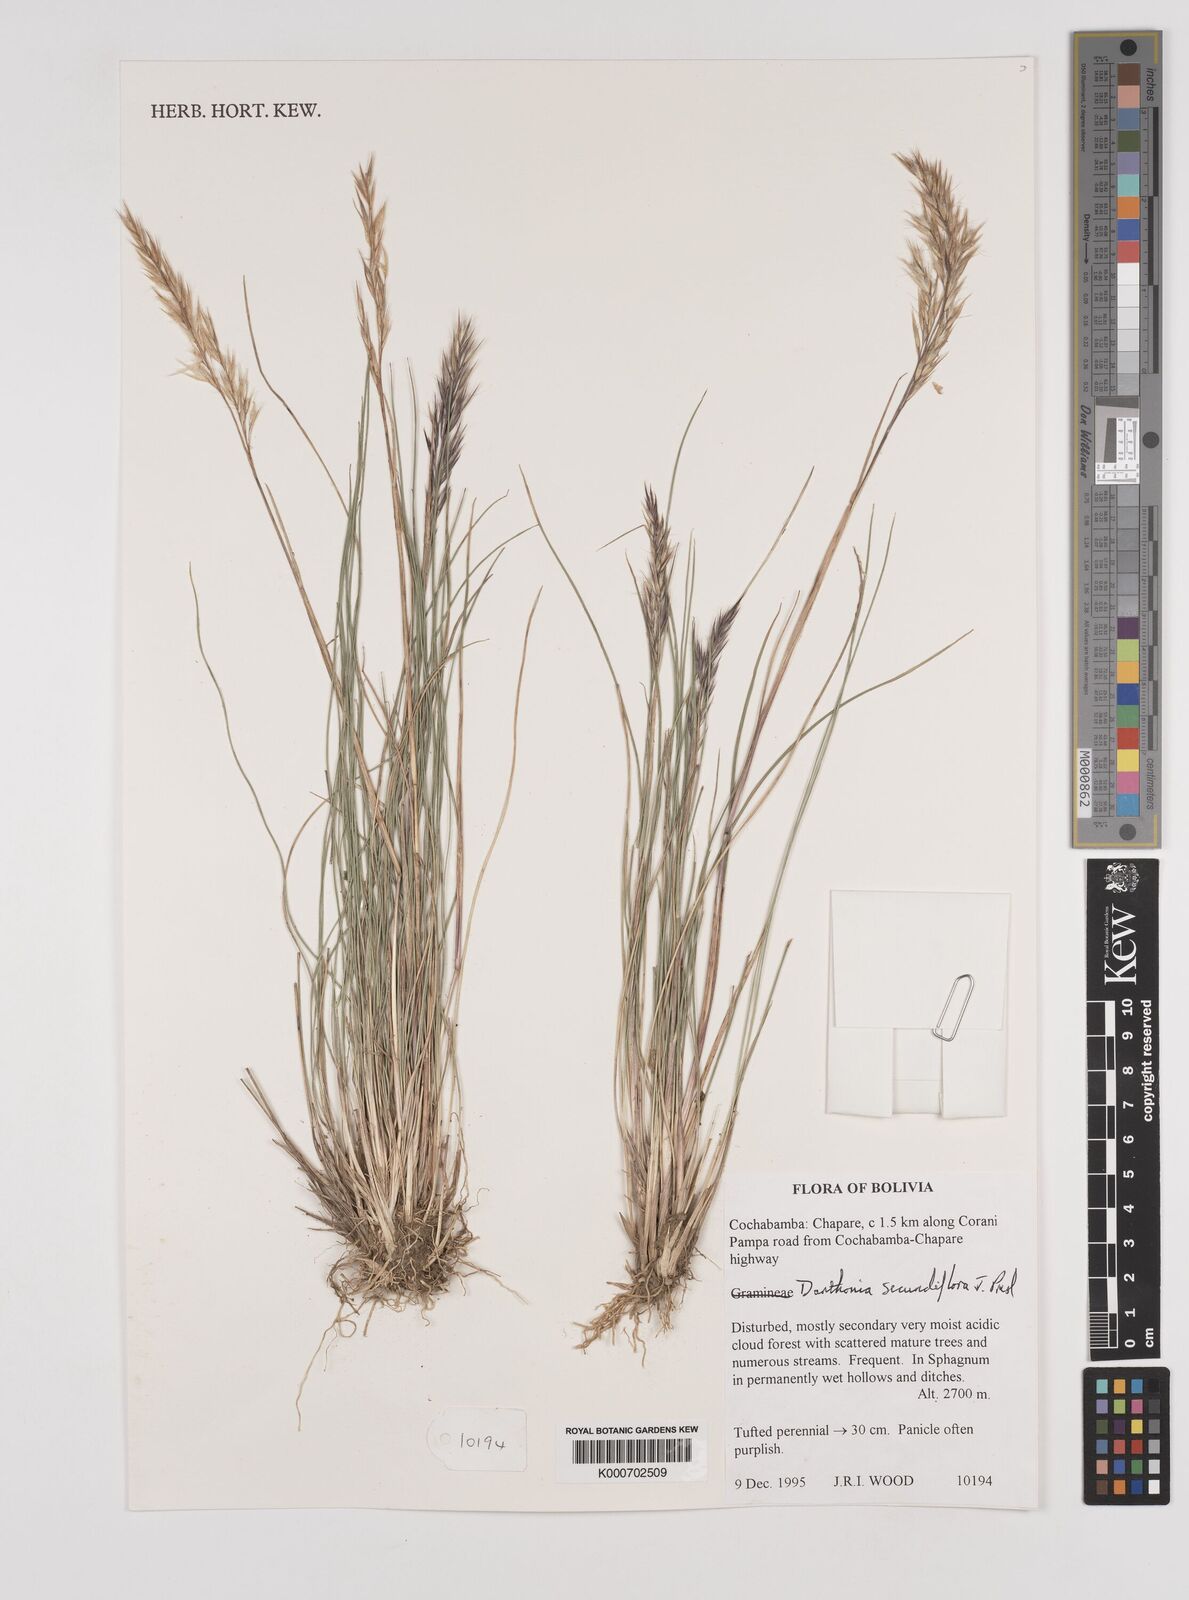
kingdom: Plantae
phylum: Tracheophyta
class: Liliopsida
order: Poales
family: Poaceae
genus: Danthonia
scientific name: Danthonia secundiflora
